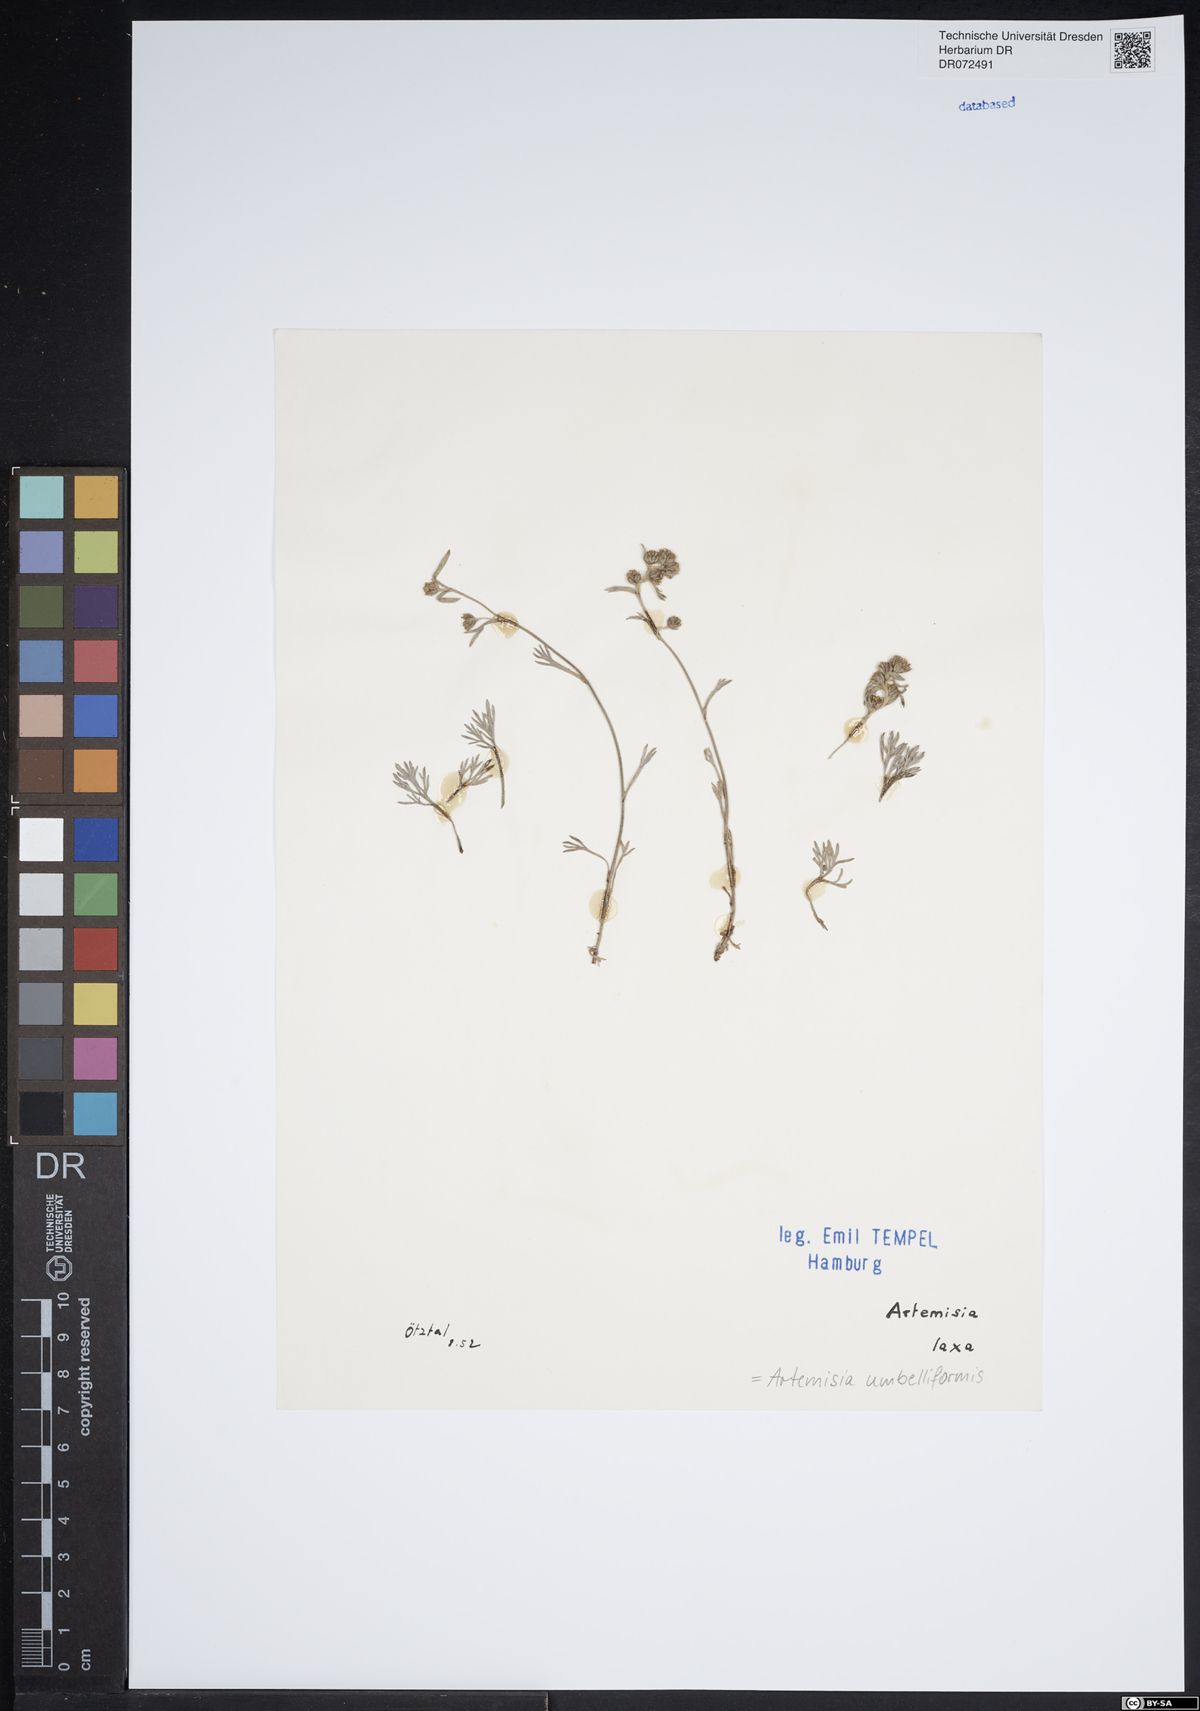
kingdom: Plantae
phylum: Tracheophyta
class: Magnoliopsida
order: Asterales
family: Asteraceae
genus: Artemisia
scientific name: Artemisia mutellina
